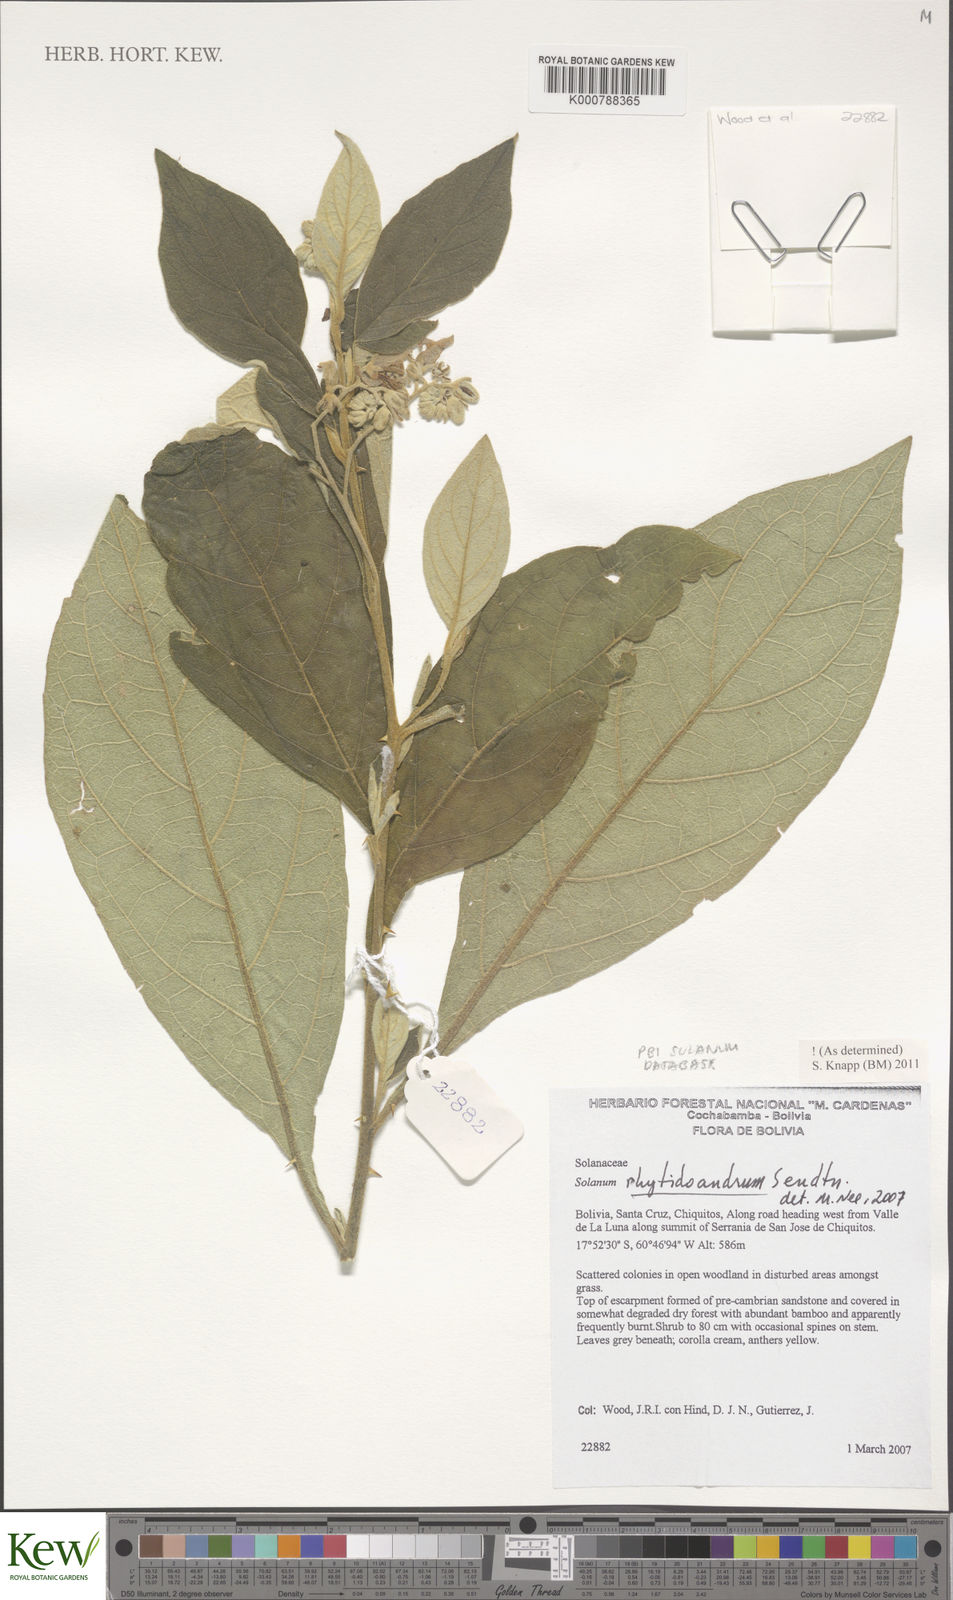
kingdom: Plantae
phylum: Tracheophyta
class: Magnoliopsida
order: Solanales
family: Solanaceae
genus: Solanum
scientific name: Solanum rhytidoandrum
